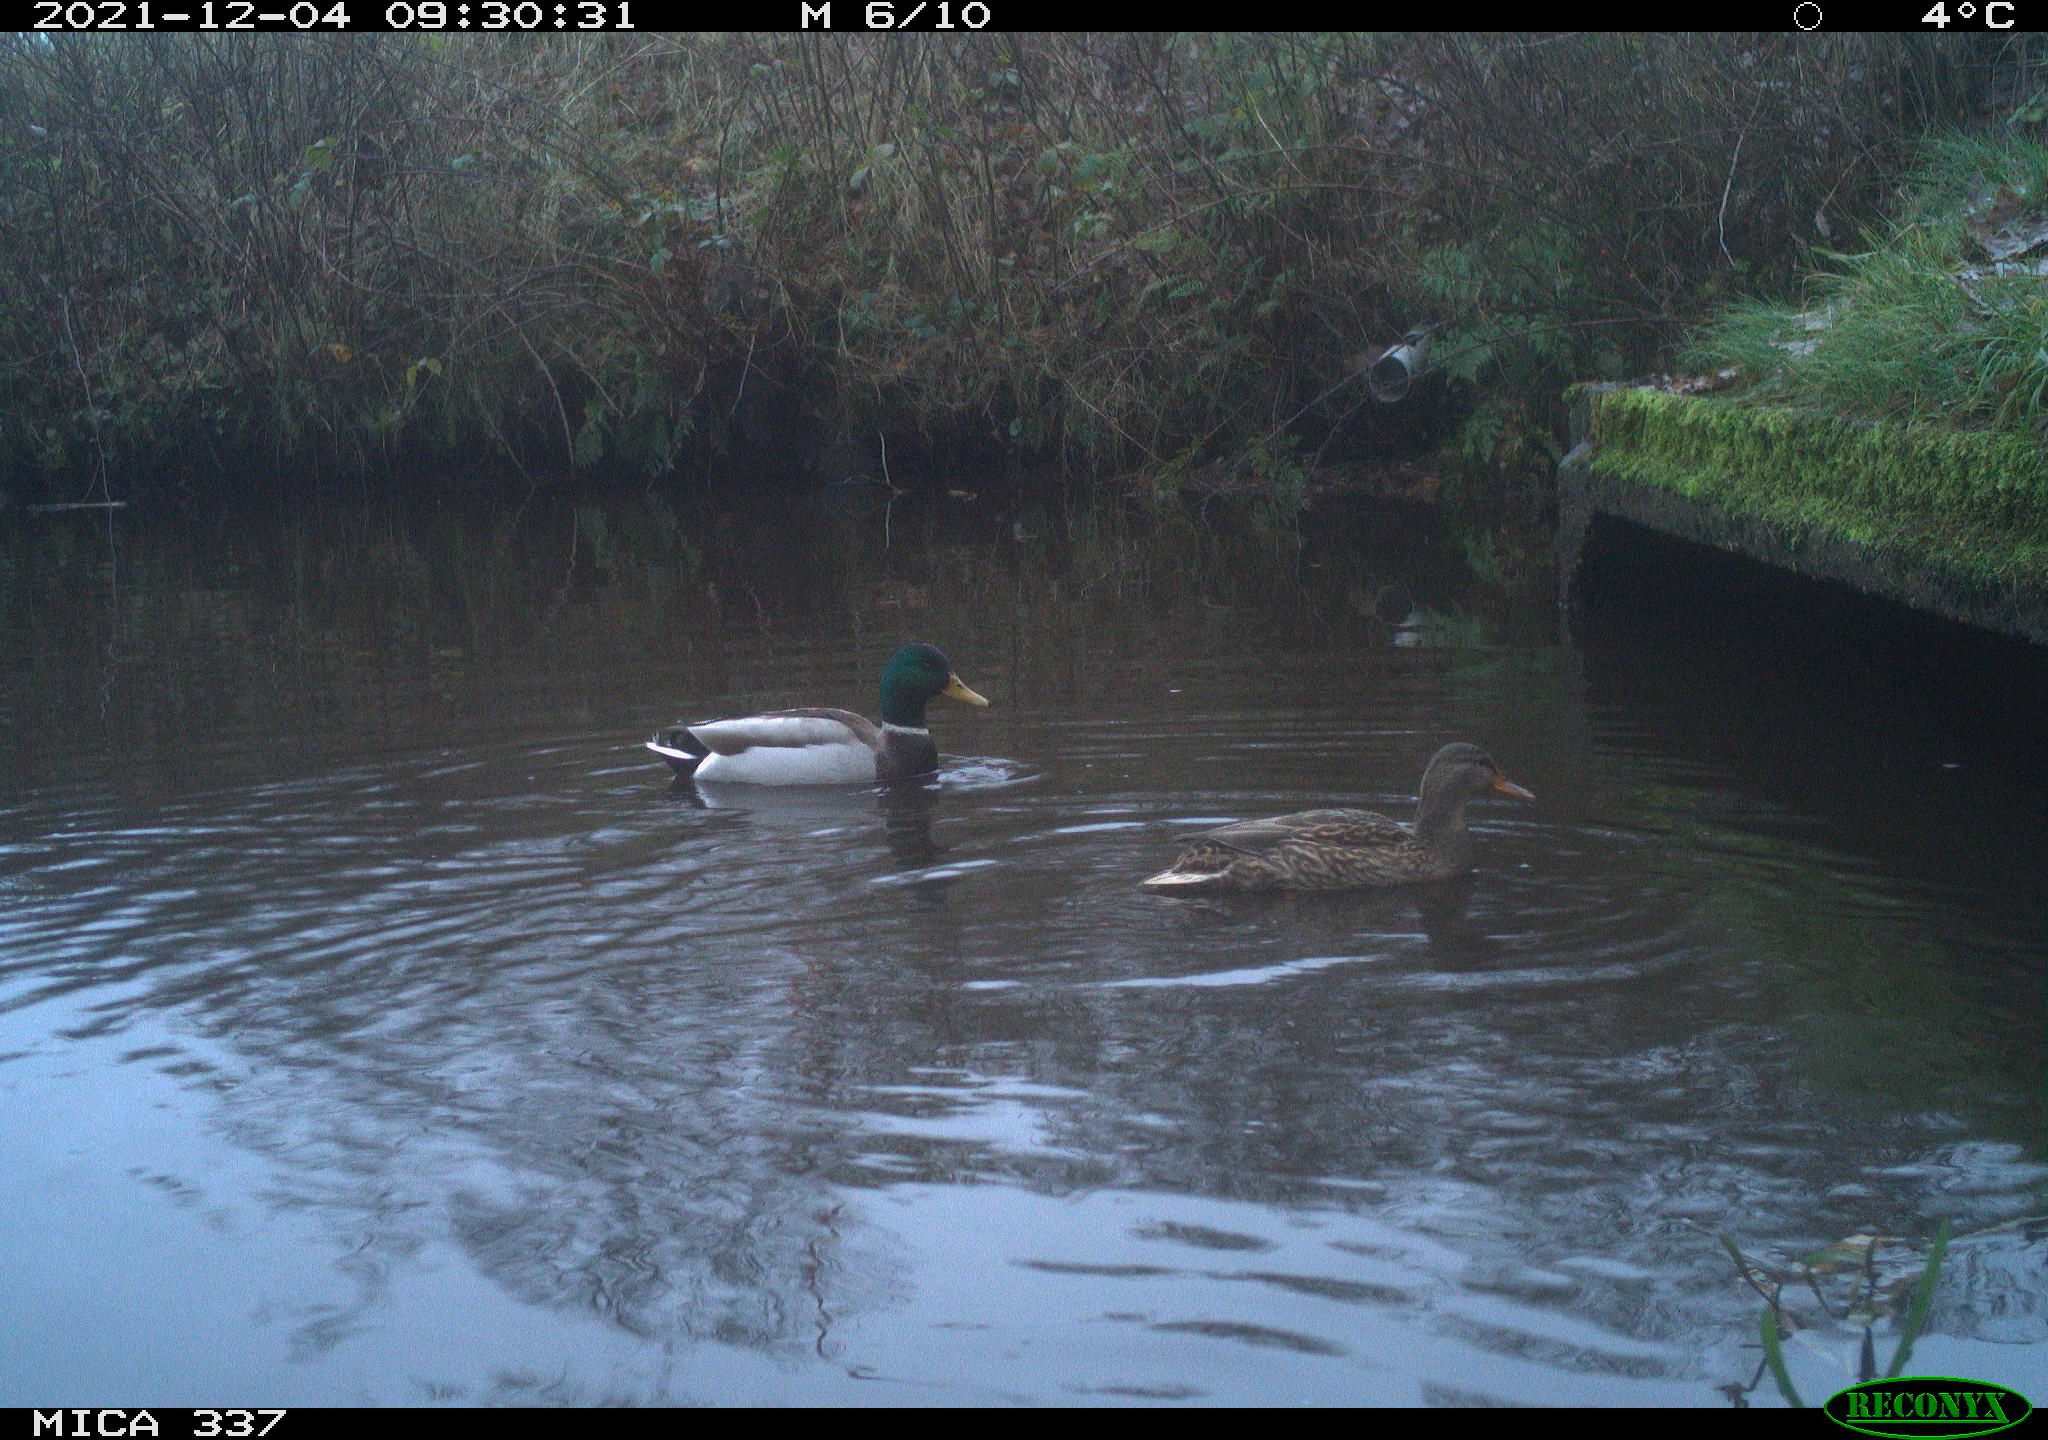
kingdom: Animalia
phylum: Chordata
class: Aves
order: Anseriformes
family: Anatidae
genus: Anas
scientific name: Anas platyrhynchos
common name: Mallard
